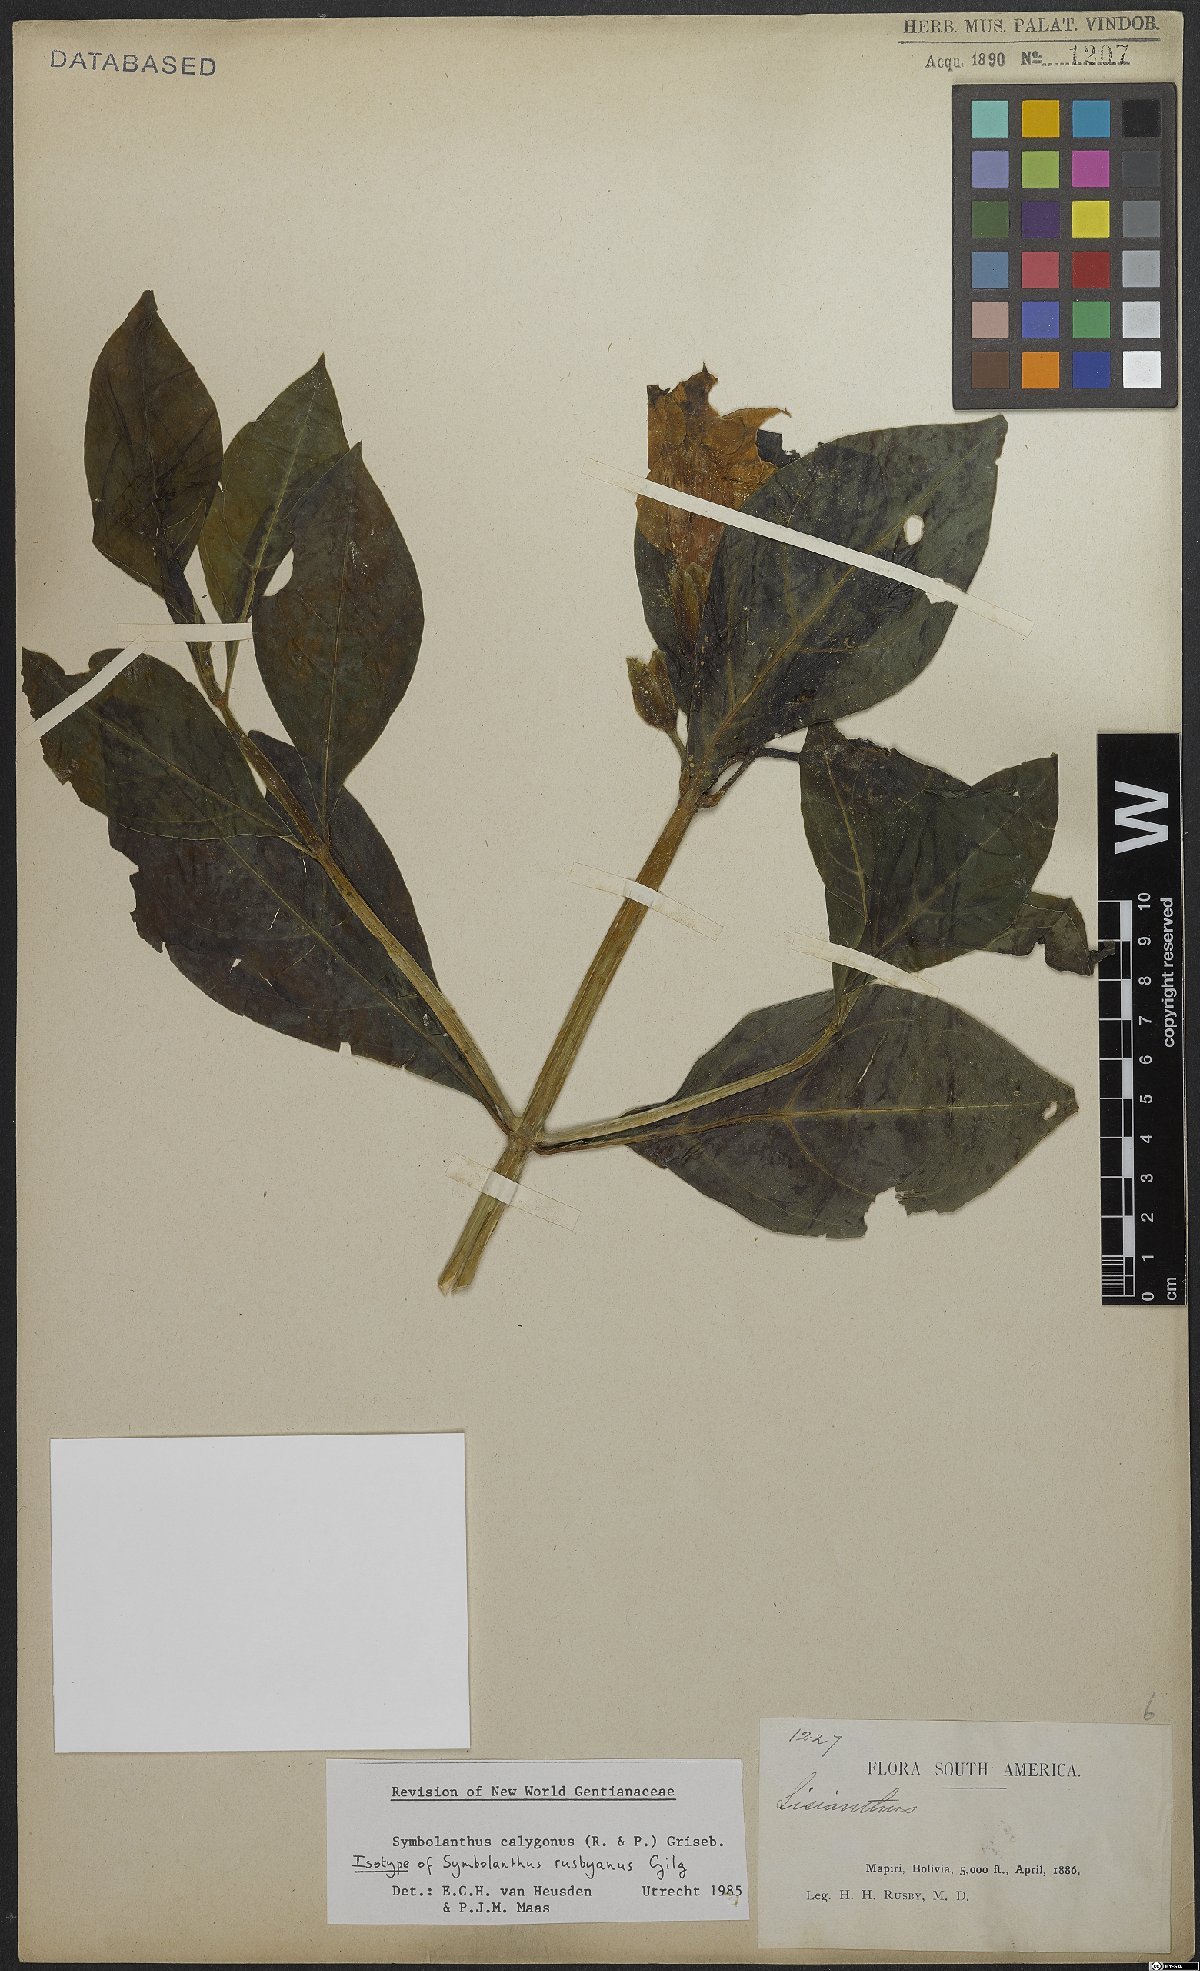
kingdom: Plantae
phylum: Tracheophyta
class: Magnoliopsida
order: Gentianales
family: Gentianaceae
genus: Symbolanthus
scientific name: Symbolanthus calygonus
